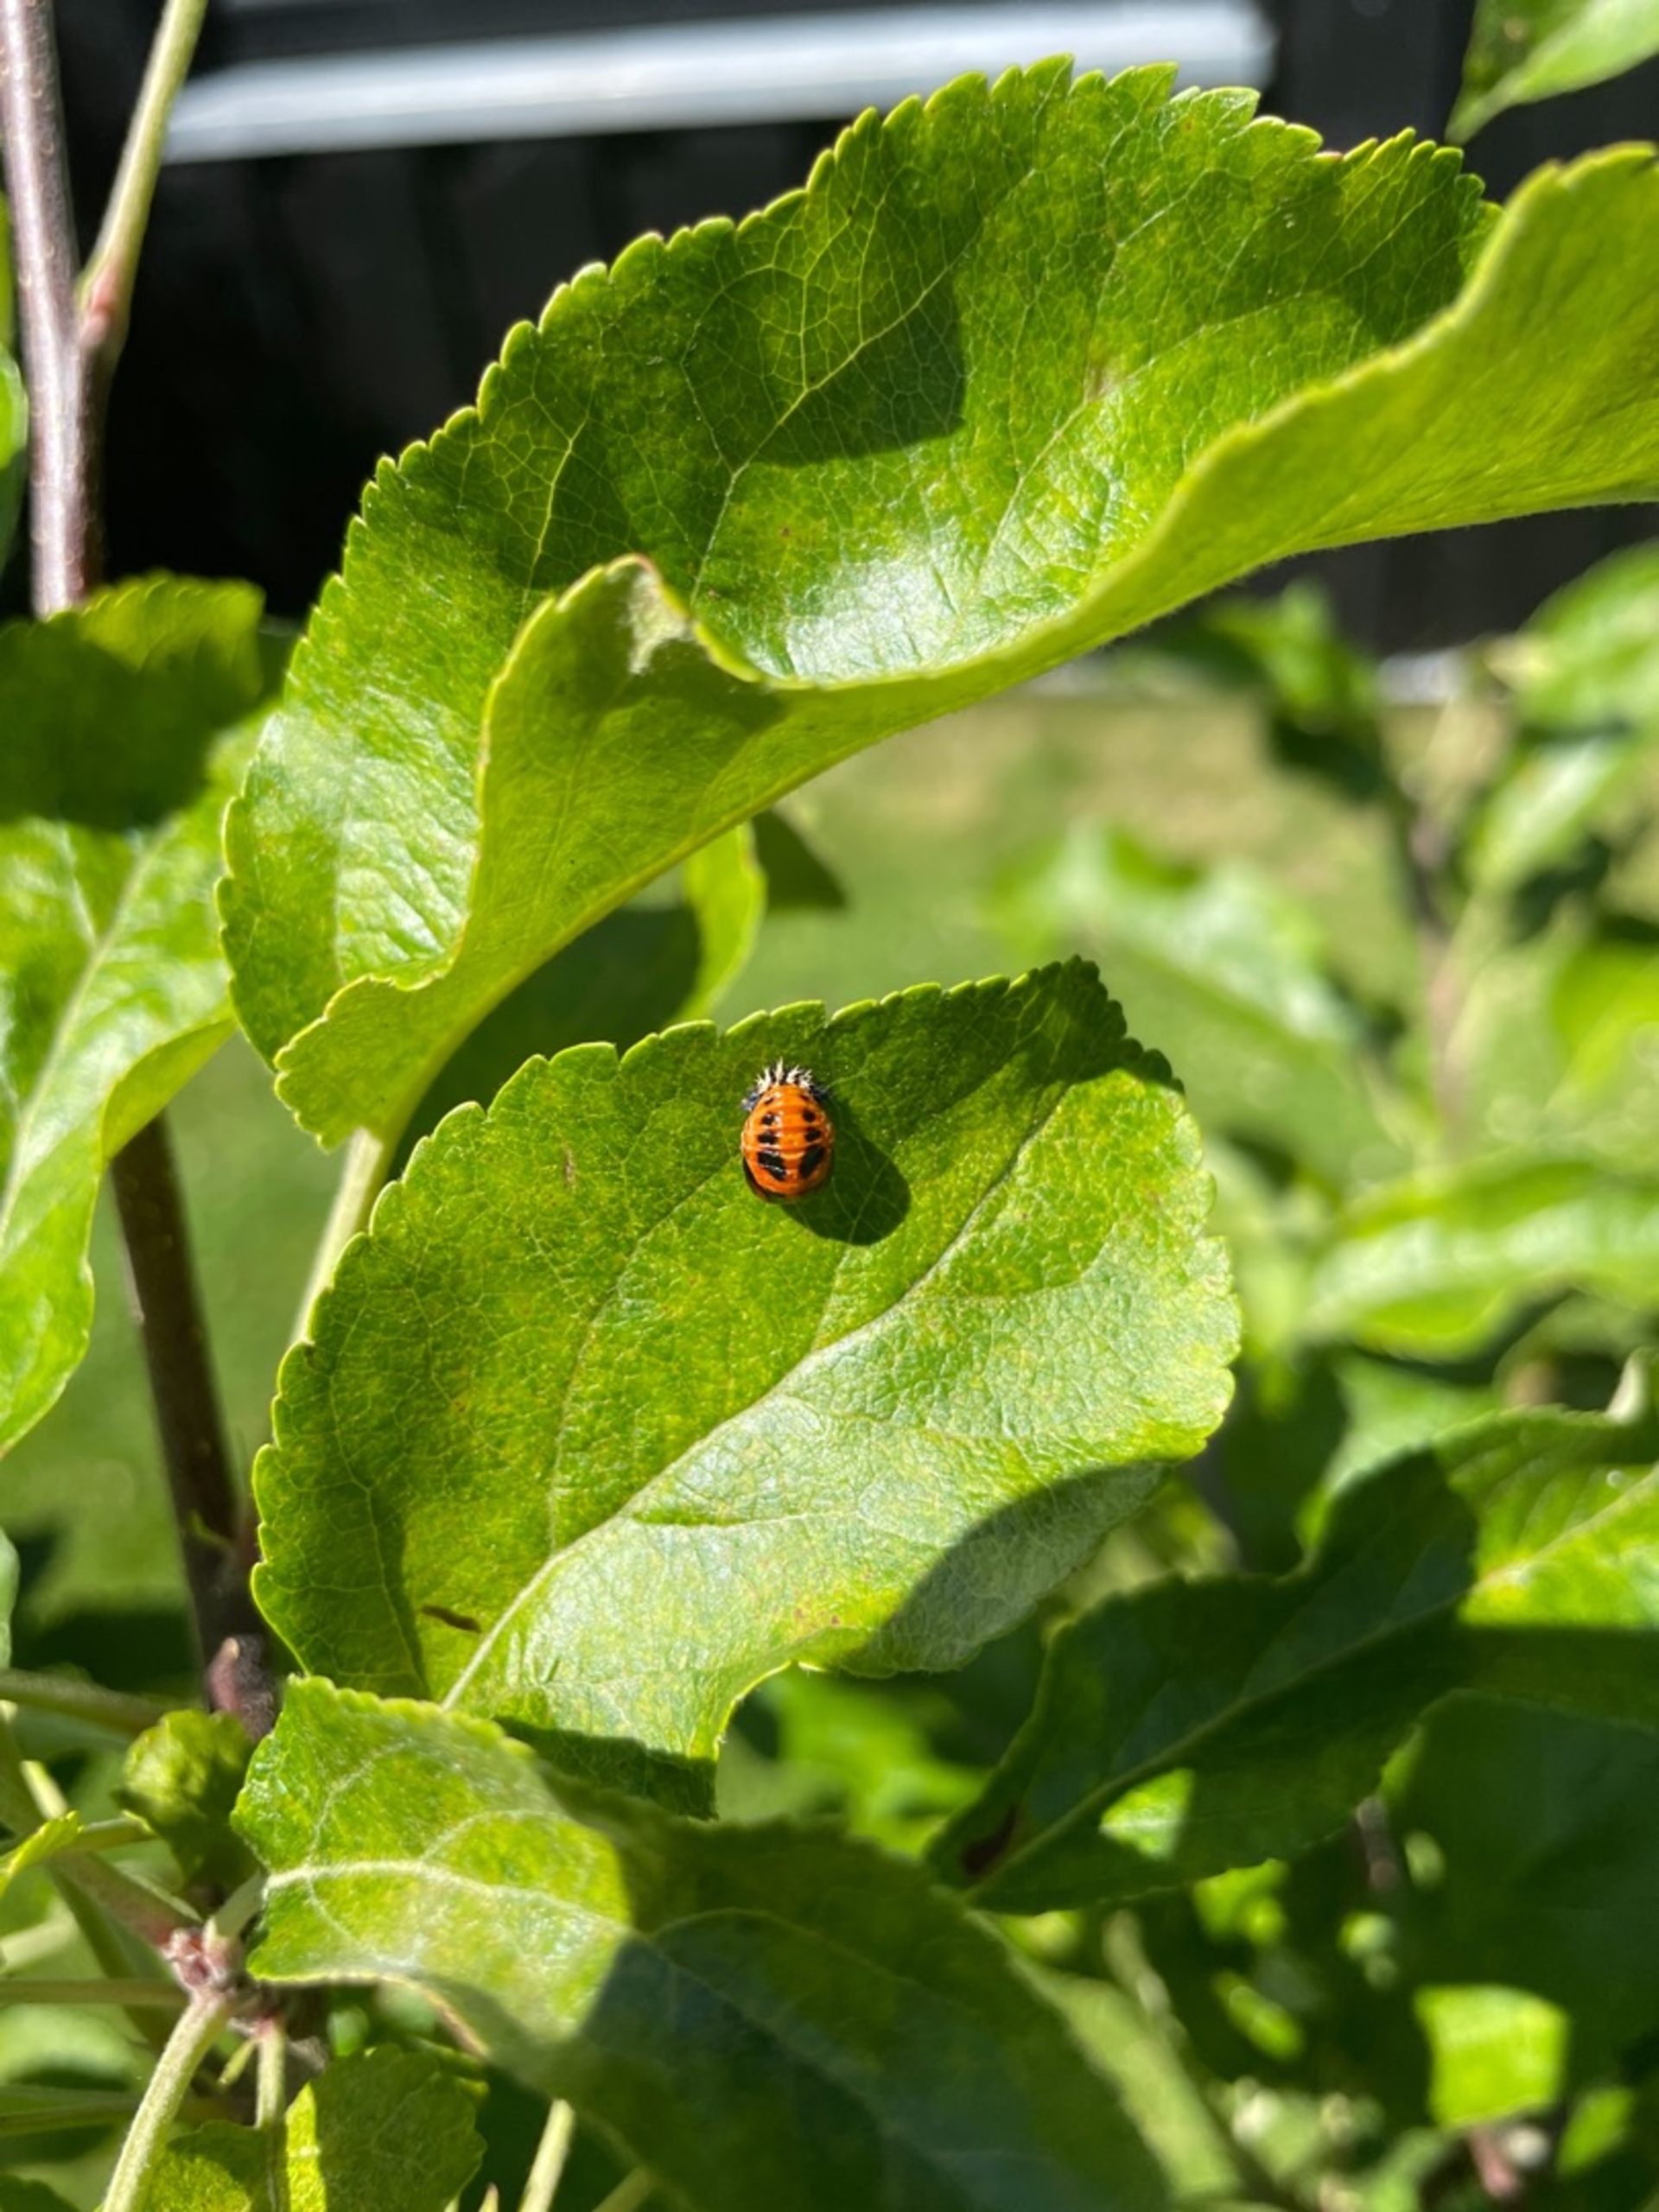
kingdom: Animalia
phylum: Arthropoda
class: Insecta
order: Coleoptera
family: Coccinellidae
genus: Harmonia
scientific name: Harmonia axyridis
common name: Harlekinmariehøne
